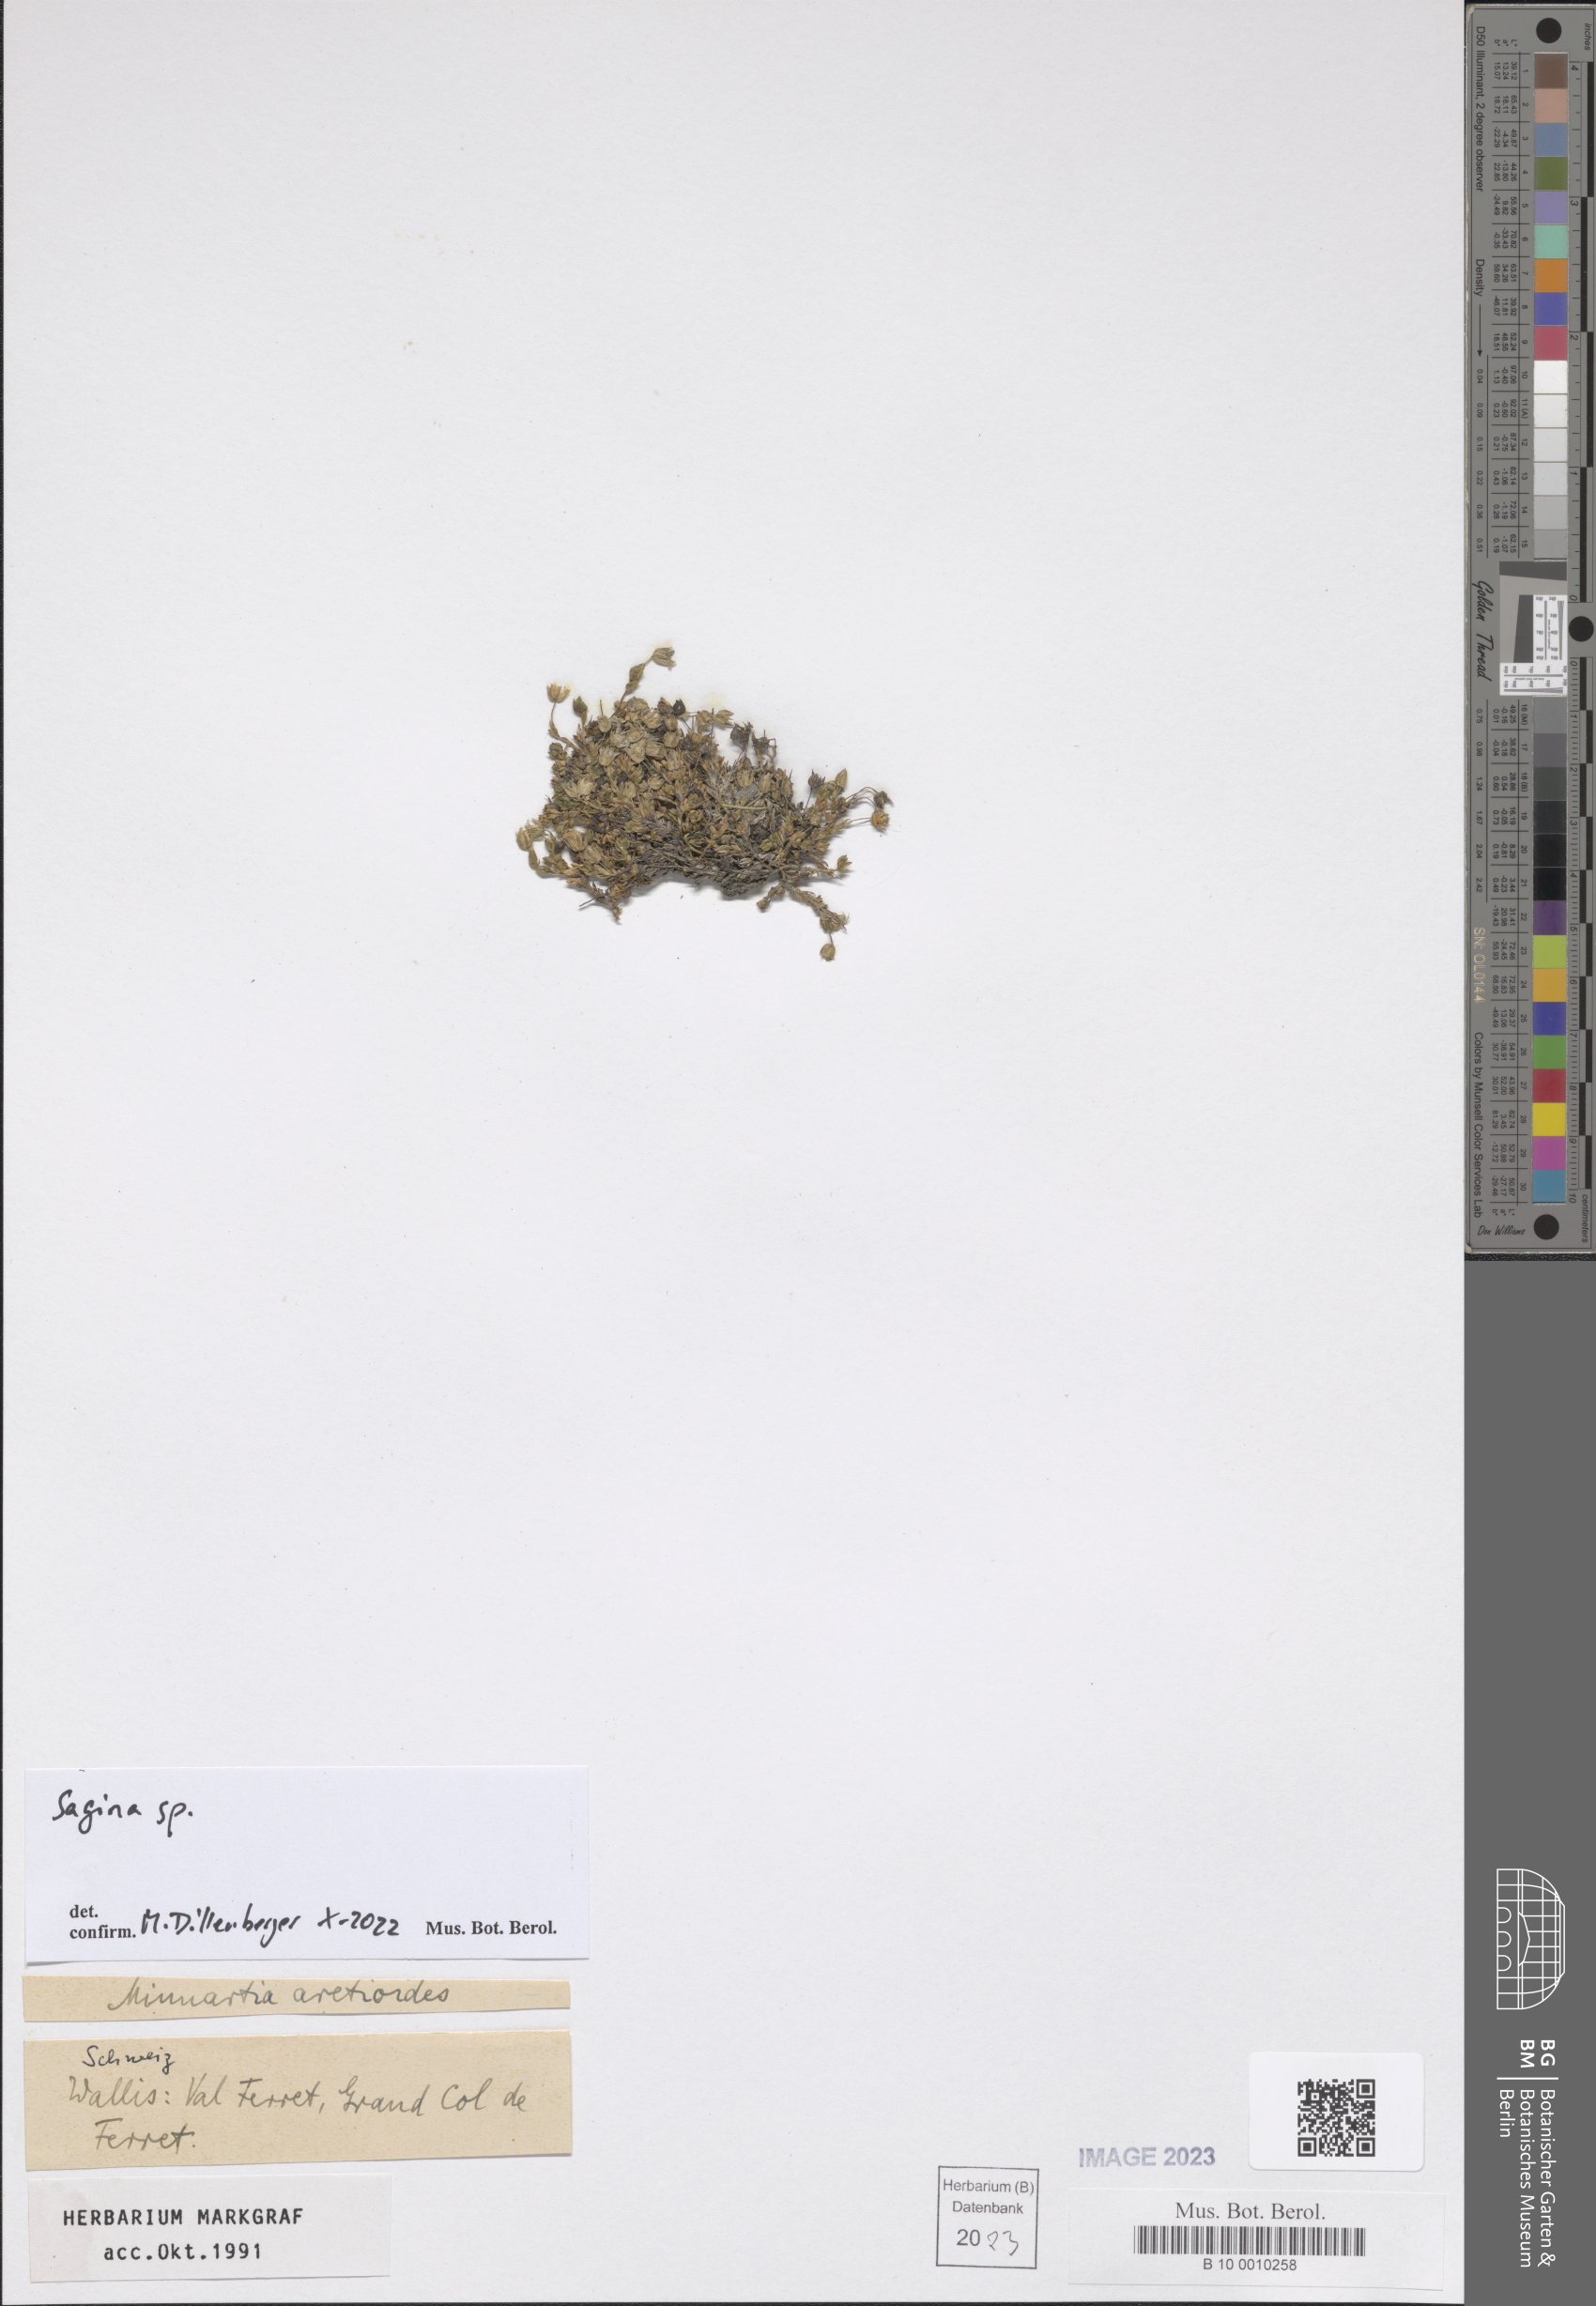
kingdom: Plantae
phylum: Tracheophyta
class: Magnoliopsida
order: Caryophyllales
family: Caryophyllaceae
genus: Sagina
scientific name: Sagina
